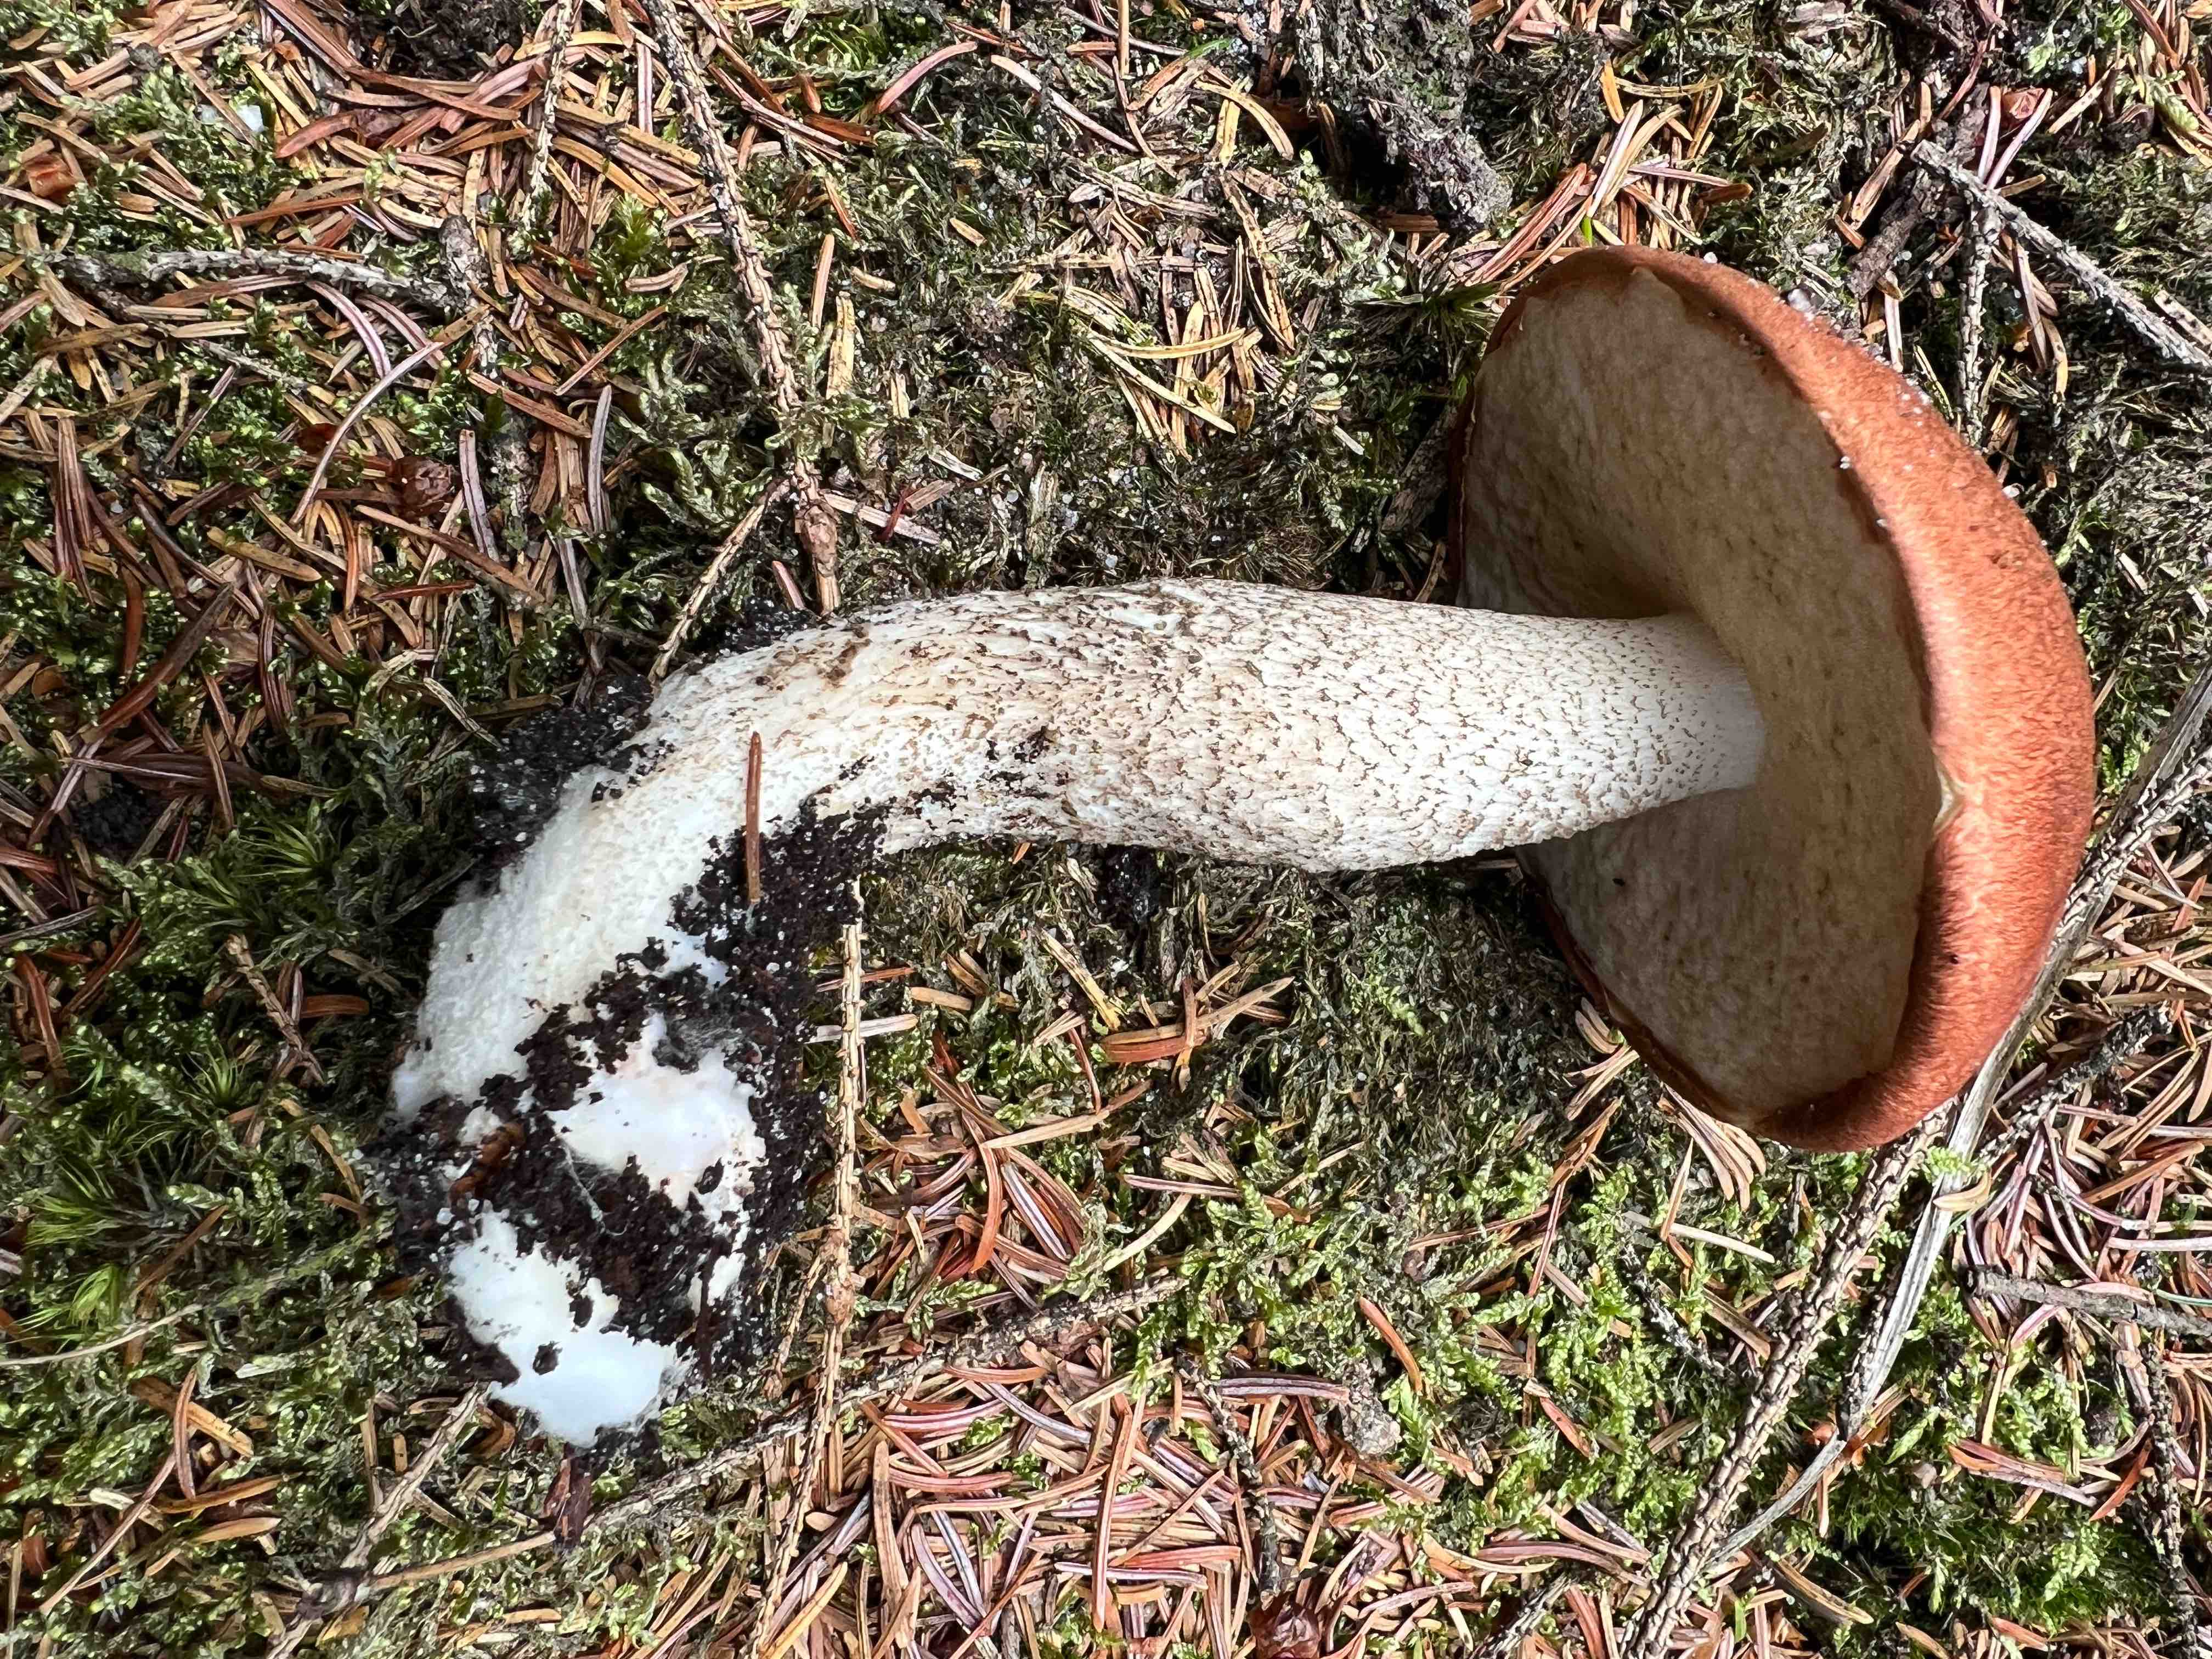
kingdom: Fungi
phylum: Basidiomycota
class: Agaricomycetes
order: Boletales
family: Boletaceae
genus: Leccinum
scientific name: Leccinum vulpinum
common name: fyrre-skælrørhat
